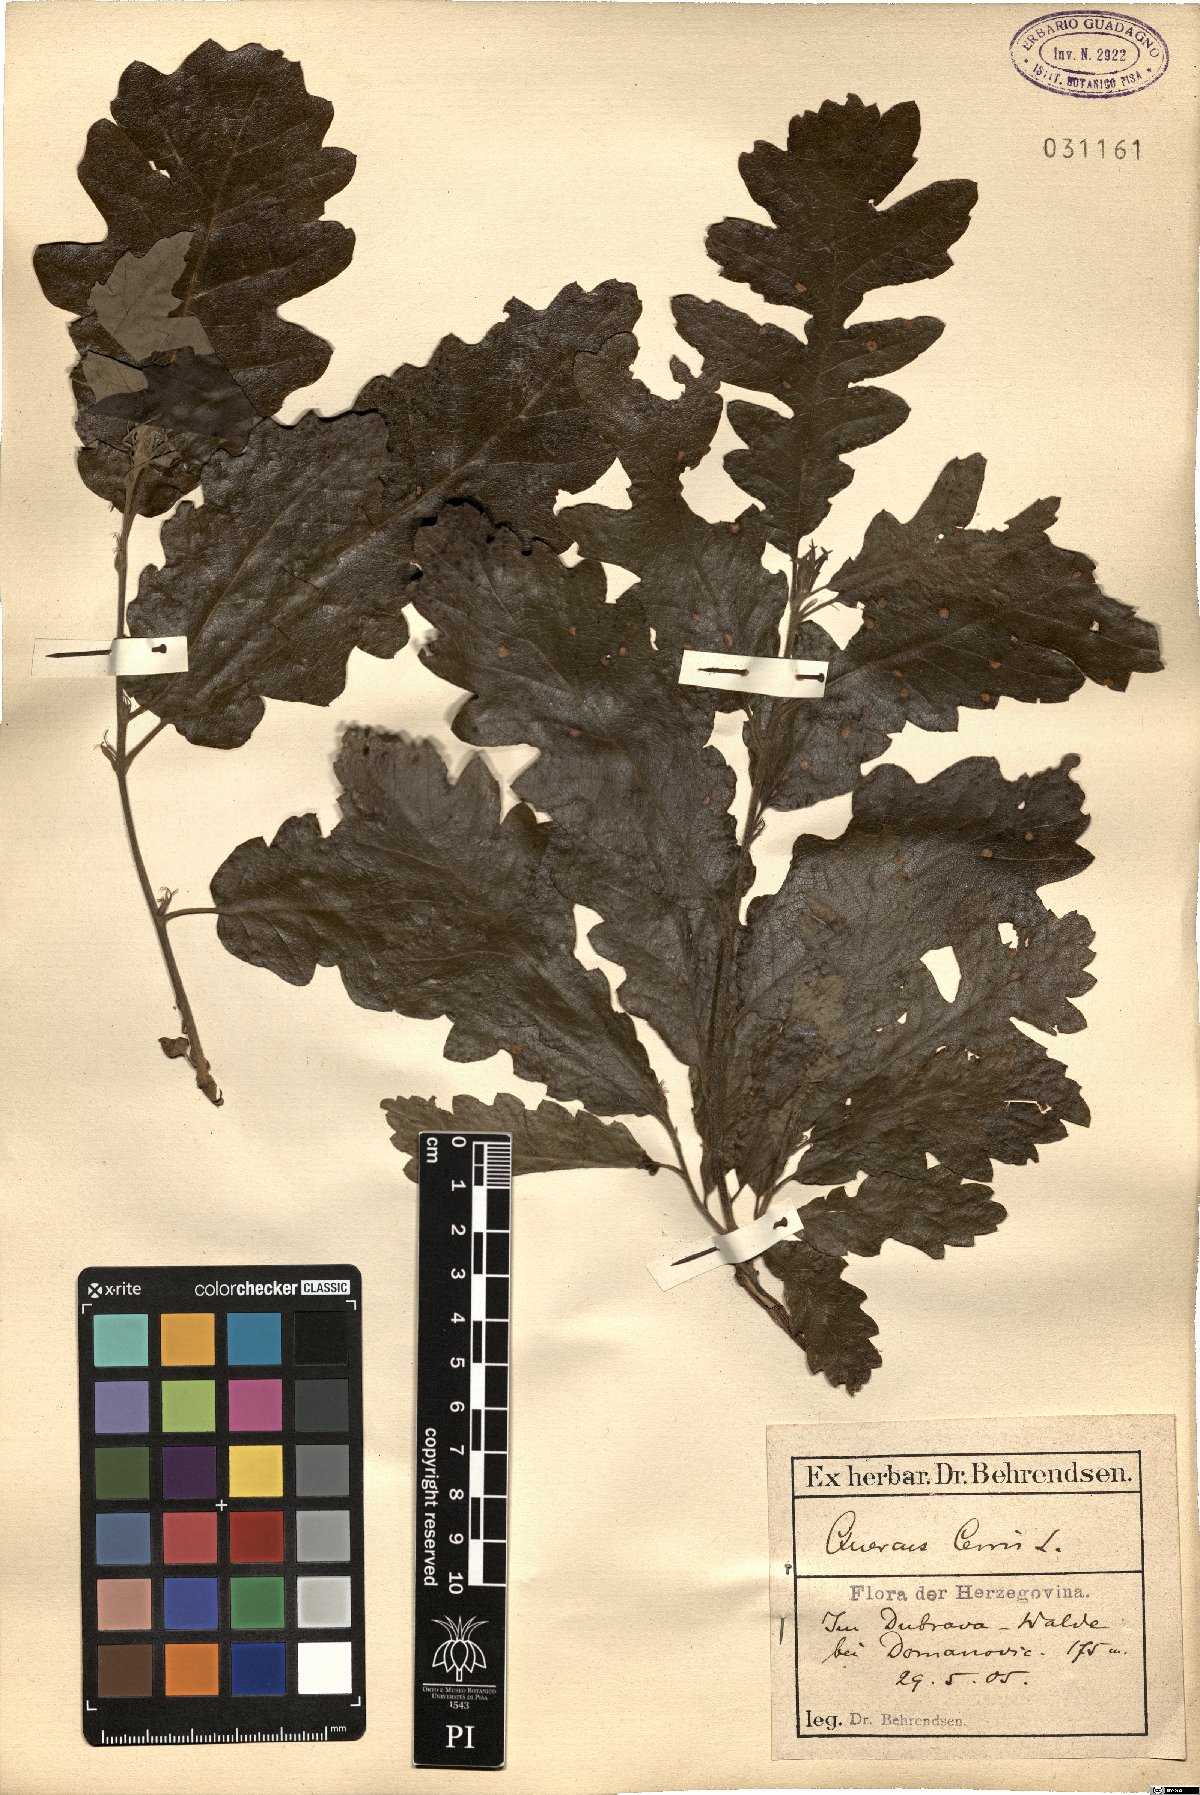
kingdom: Plantae
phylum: Tracheophyta
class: Magnoliopsida
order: Fagales
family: Fagaceae
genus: Quercus
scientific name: Quercus cerris
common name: Turkey oak
